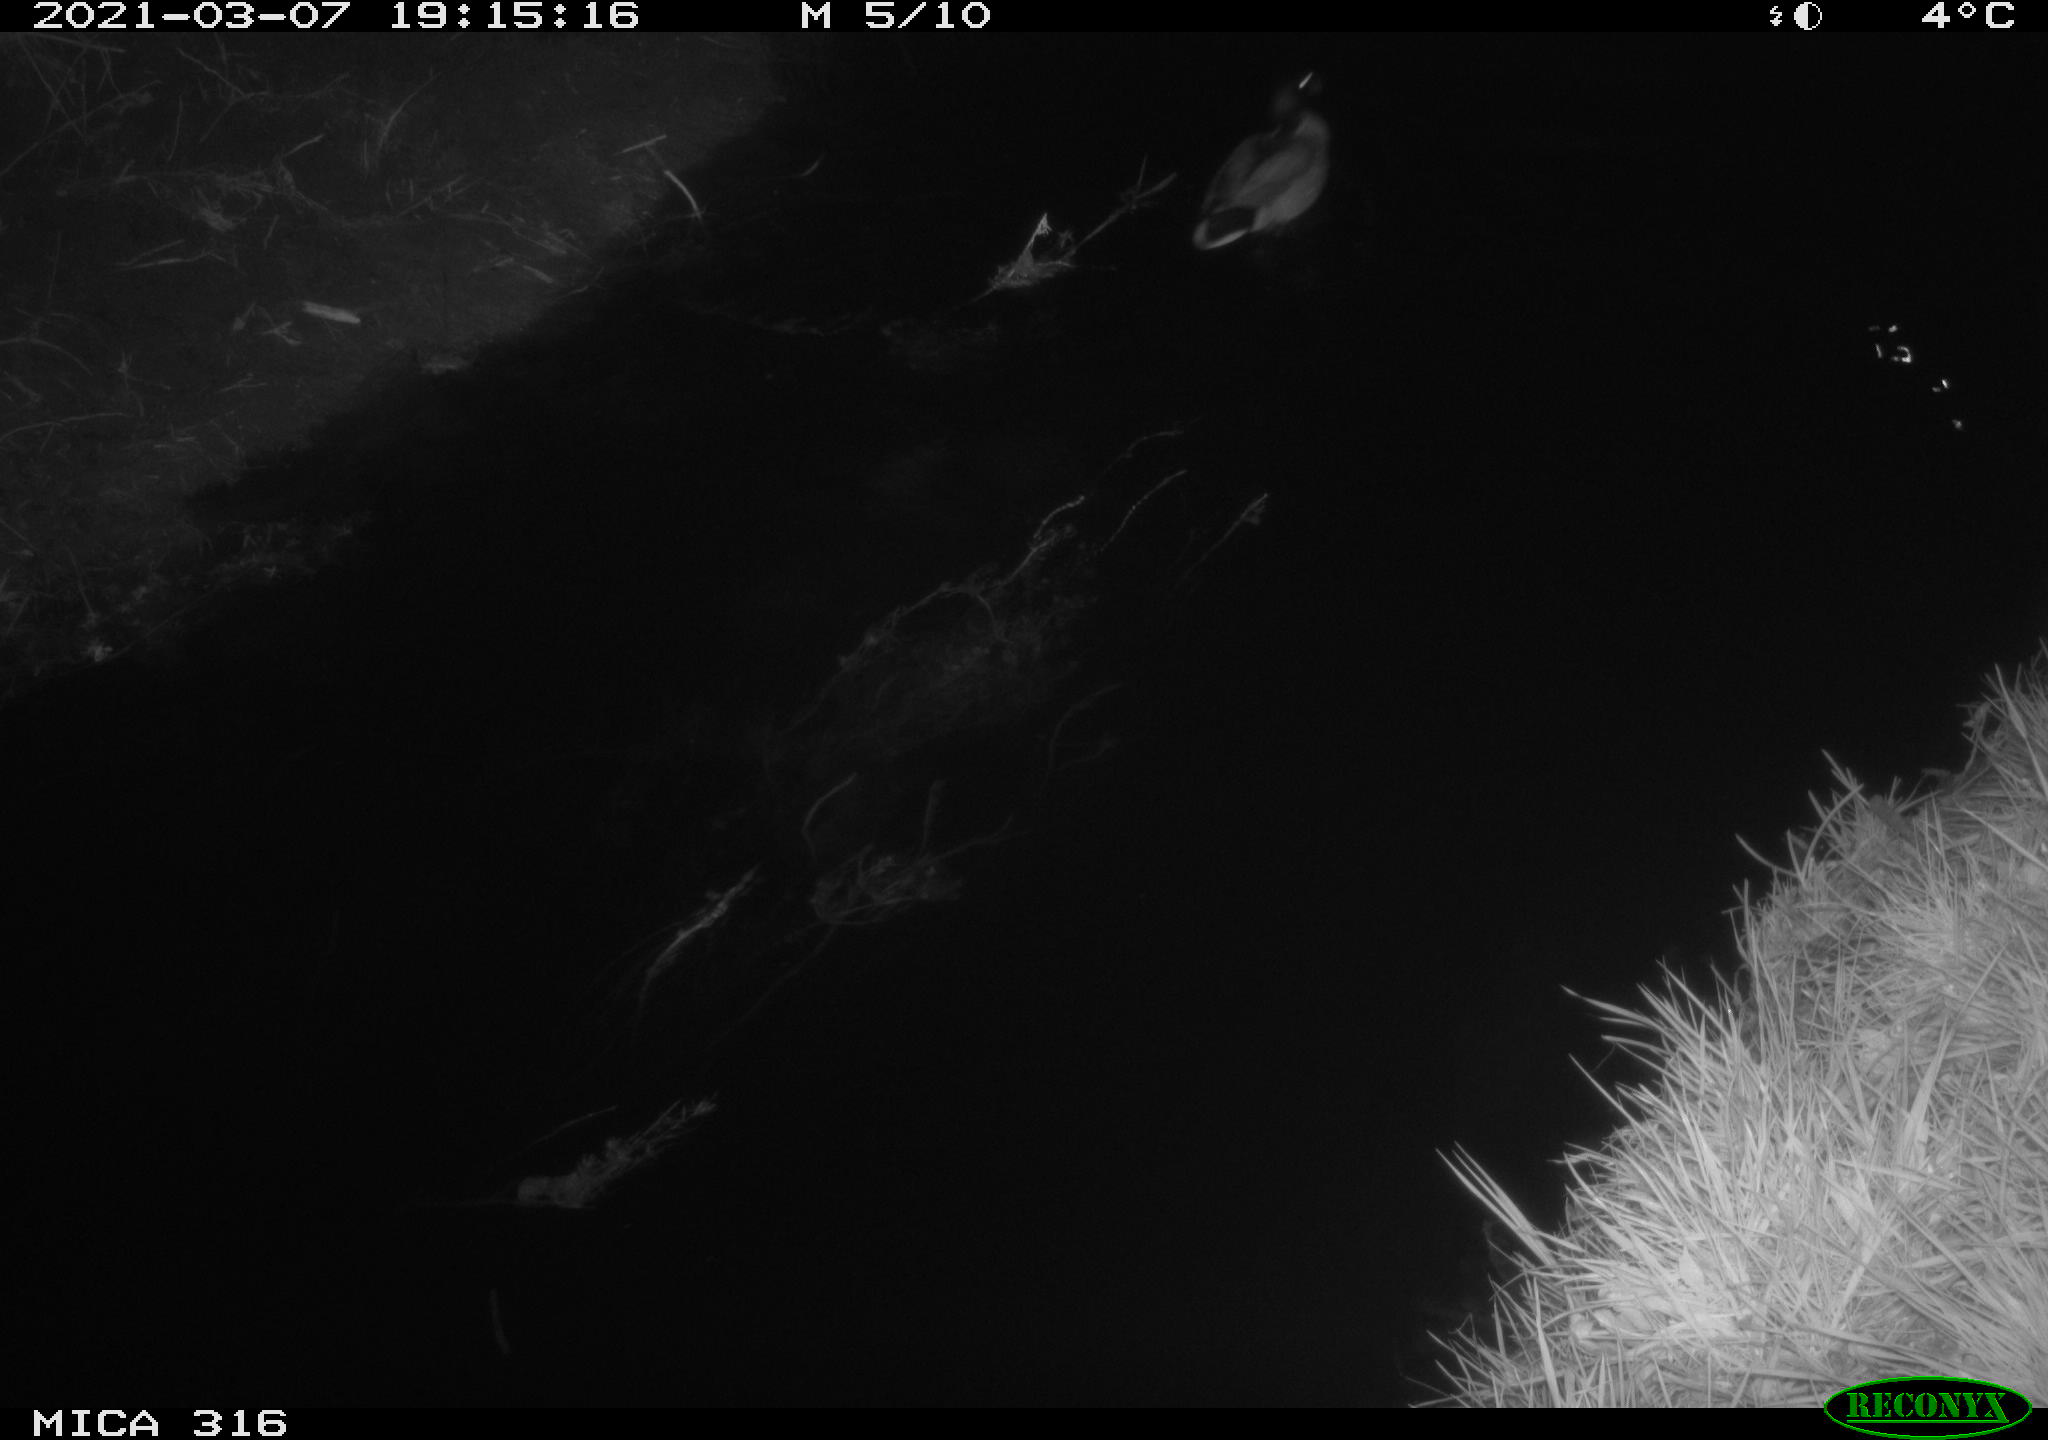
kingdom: Animalia
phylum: Chordata
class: Aves
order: Anseriformes
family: Anatidae
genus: Anas
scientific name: Anas platyrhynchos
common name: Mallard
